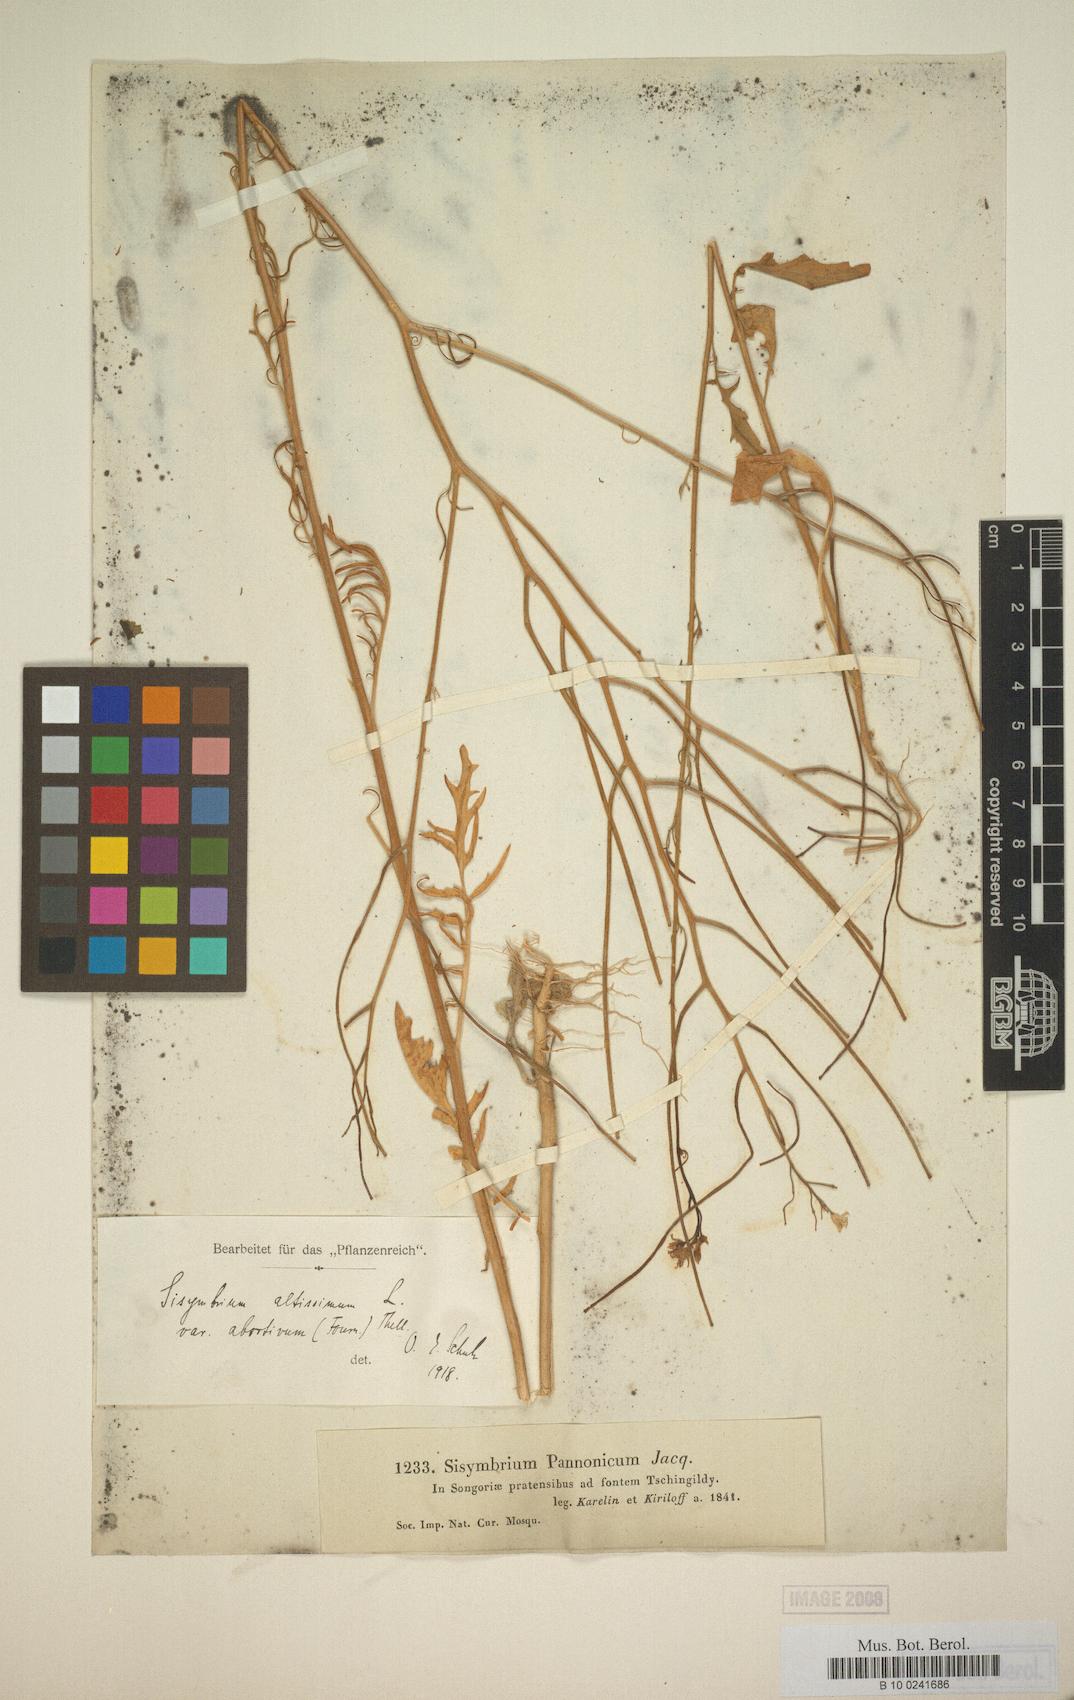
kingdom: Plantae
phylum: Tracheophyta
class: Magnoliopsida
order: Brassicales
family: Brassicaceae
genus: Sisymbrium
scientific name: Sisymbrium altissimum
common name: Tall rocket
